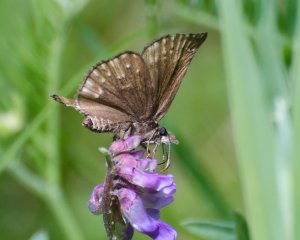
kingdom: Animalia
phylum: Arthropoda
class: Insecta
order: Lepidoptera
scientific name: Lepidoptera
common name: Butterflies
